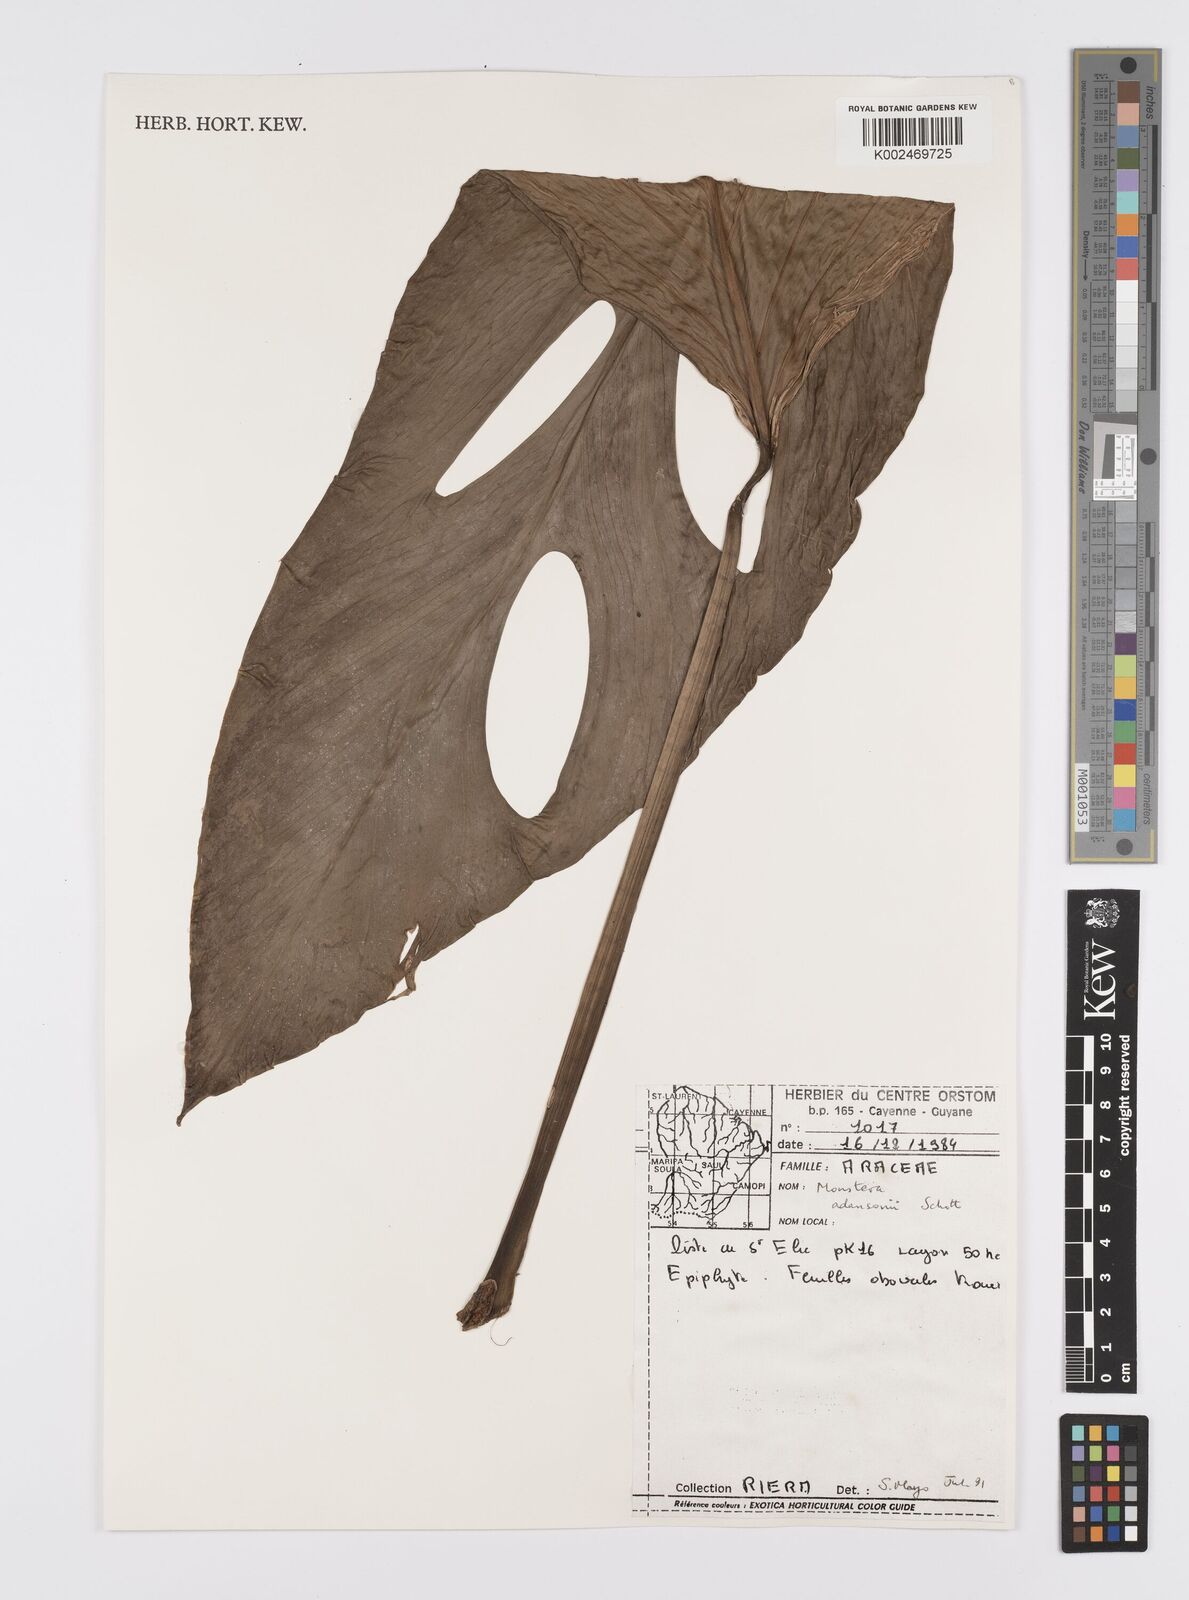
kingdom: Plantae
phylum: Tracheophyta
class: Liliopsida
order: Alismatales
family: Araceae
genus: Monstera
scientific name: Monstera adansonii
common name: Tarovine
